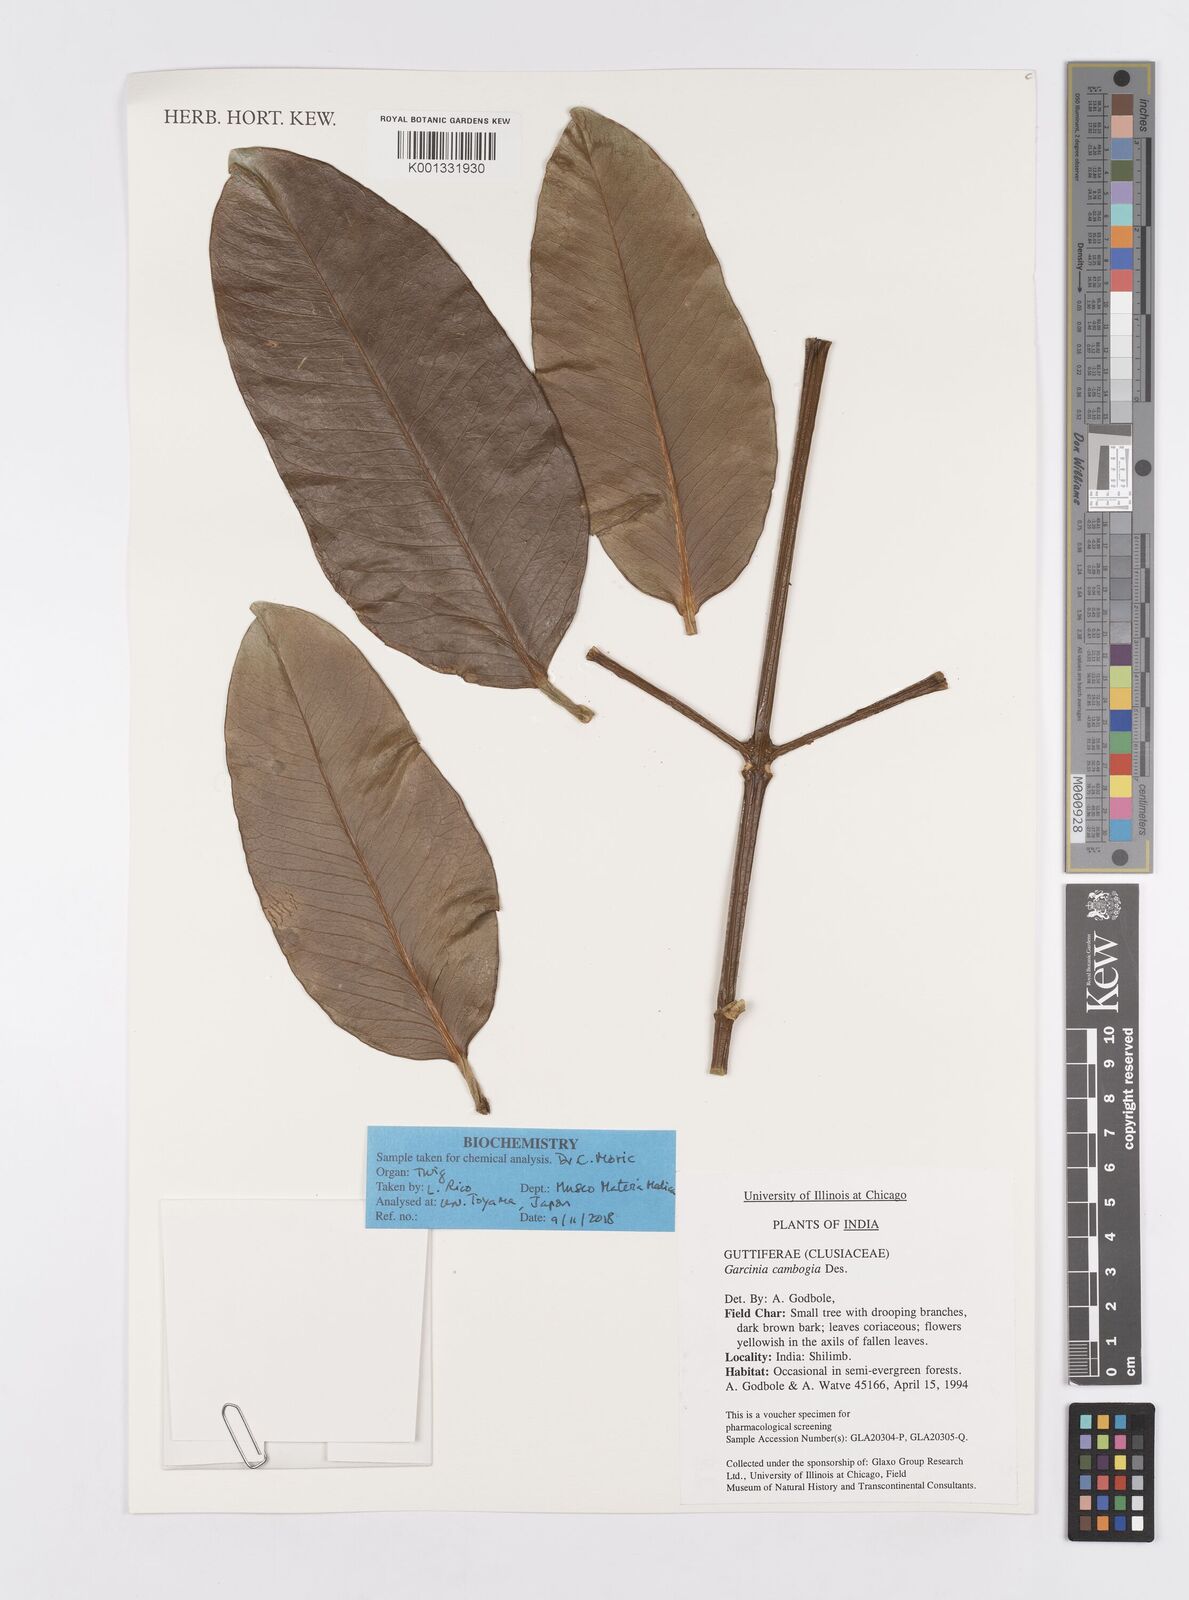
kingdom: Plantae
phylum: Tracheophyta
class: Magnoliopsida
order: Malpighiales
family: Clusiaceae
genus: Garcinia
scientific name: Garcinia gummi-gutta
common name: Malabar tamarind
